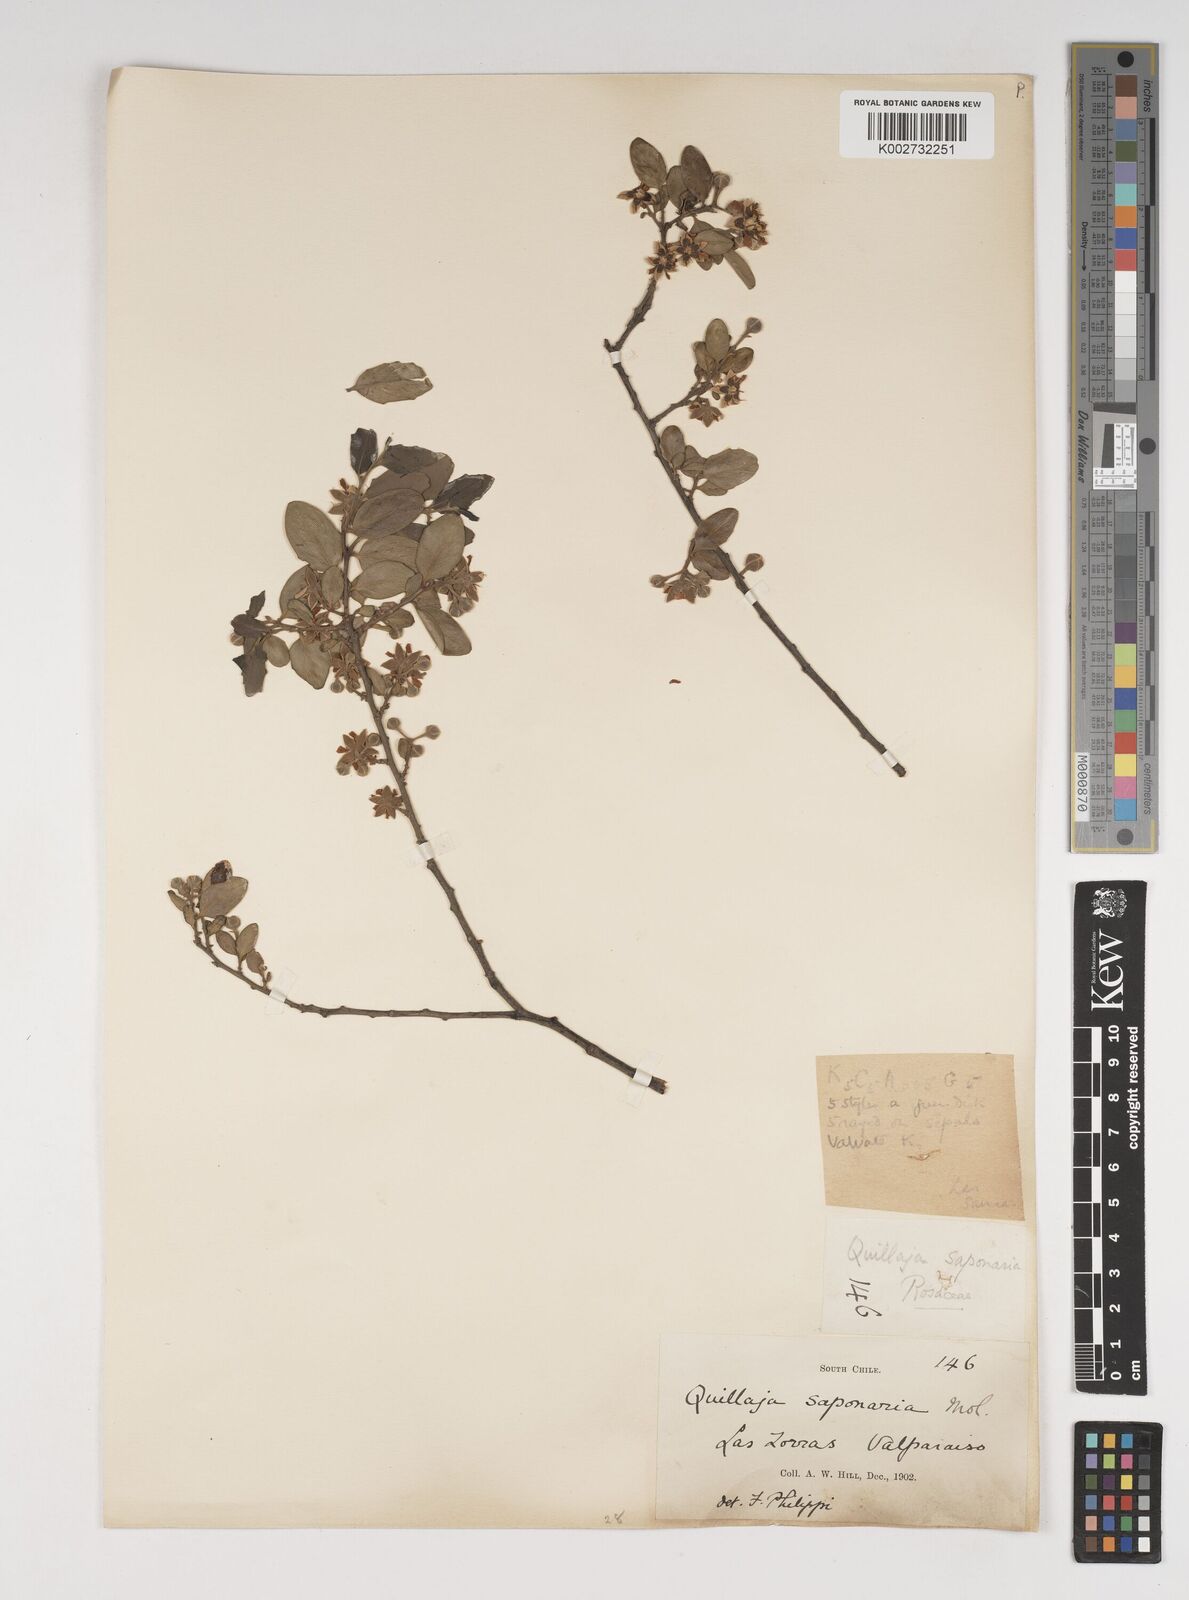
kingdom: Plantae
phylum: Tracheophyta
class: Magnoliopsida
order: Fabales
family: Quillajaceae
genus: Quillaja
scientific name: Quillaja saponaria
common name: Murillo's-bark
